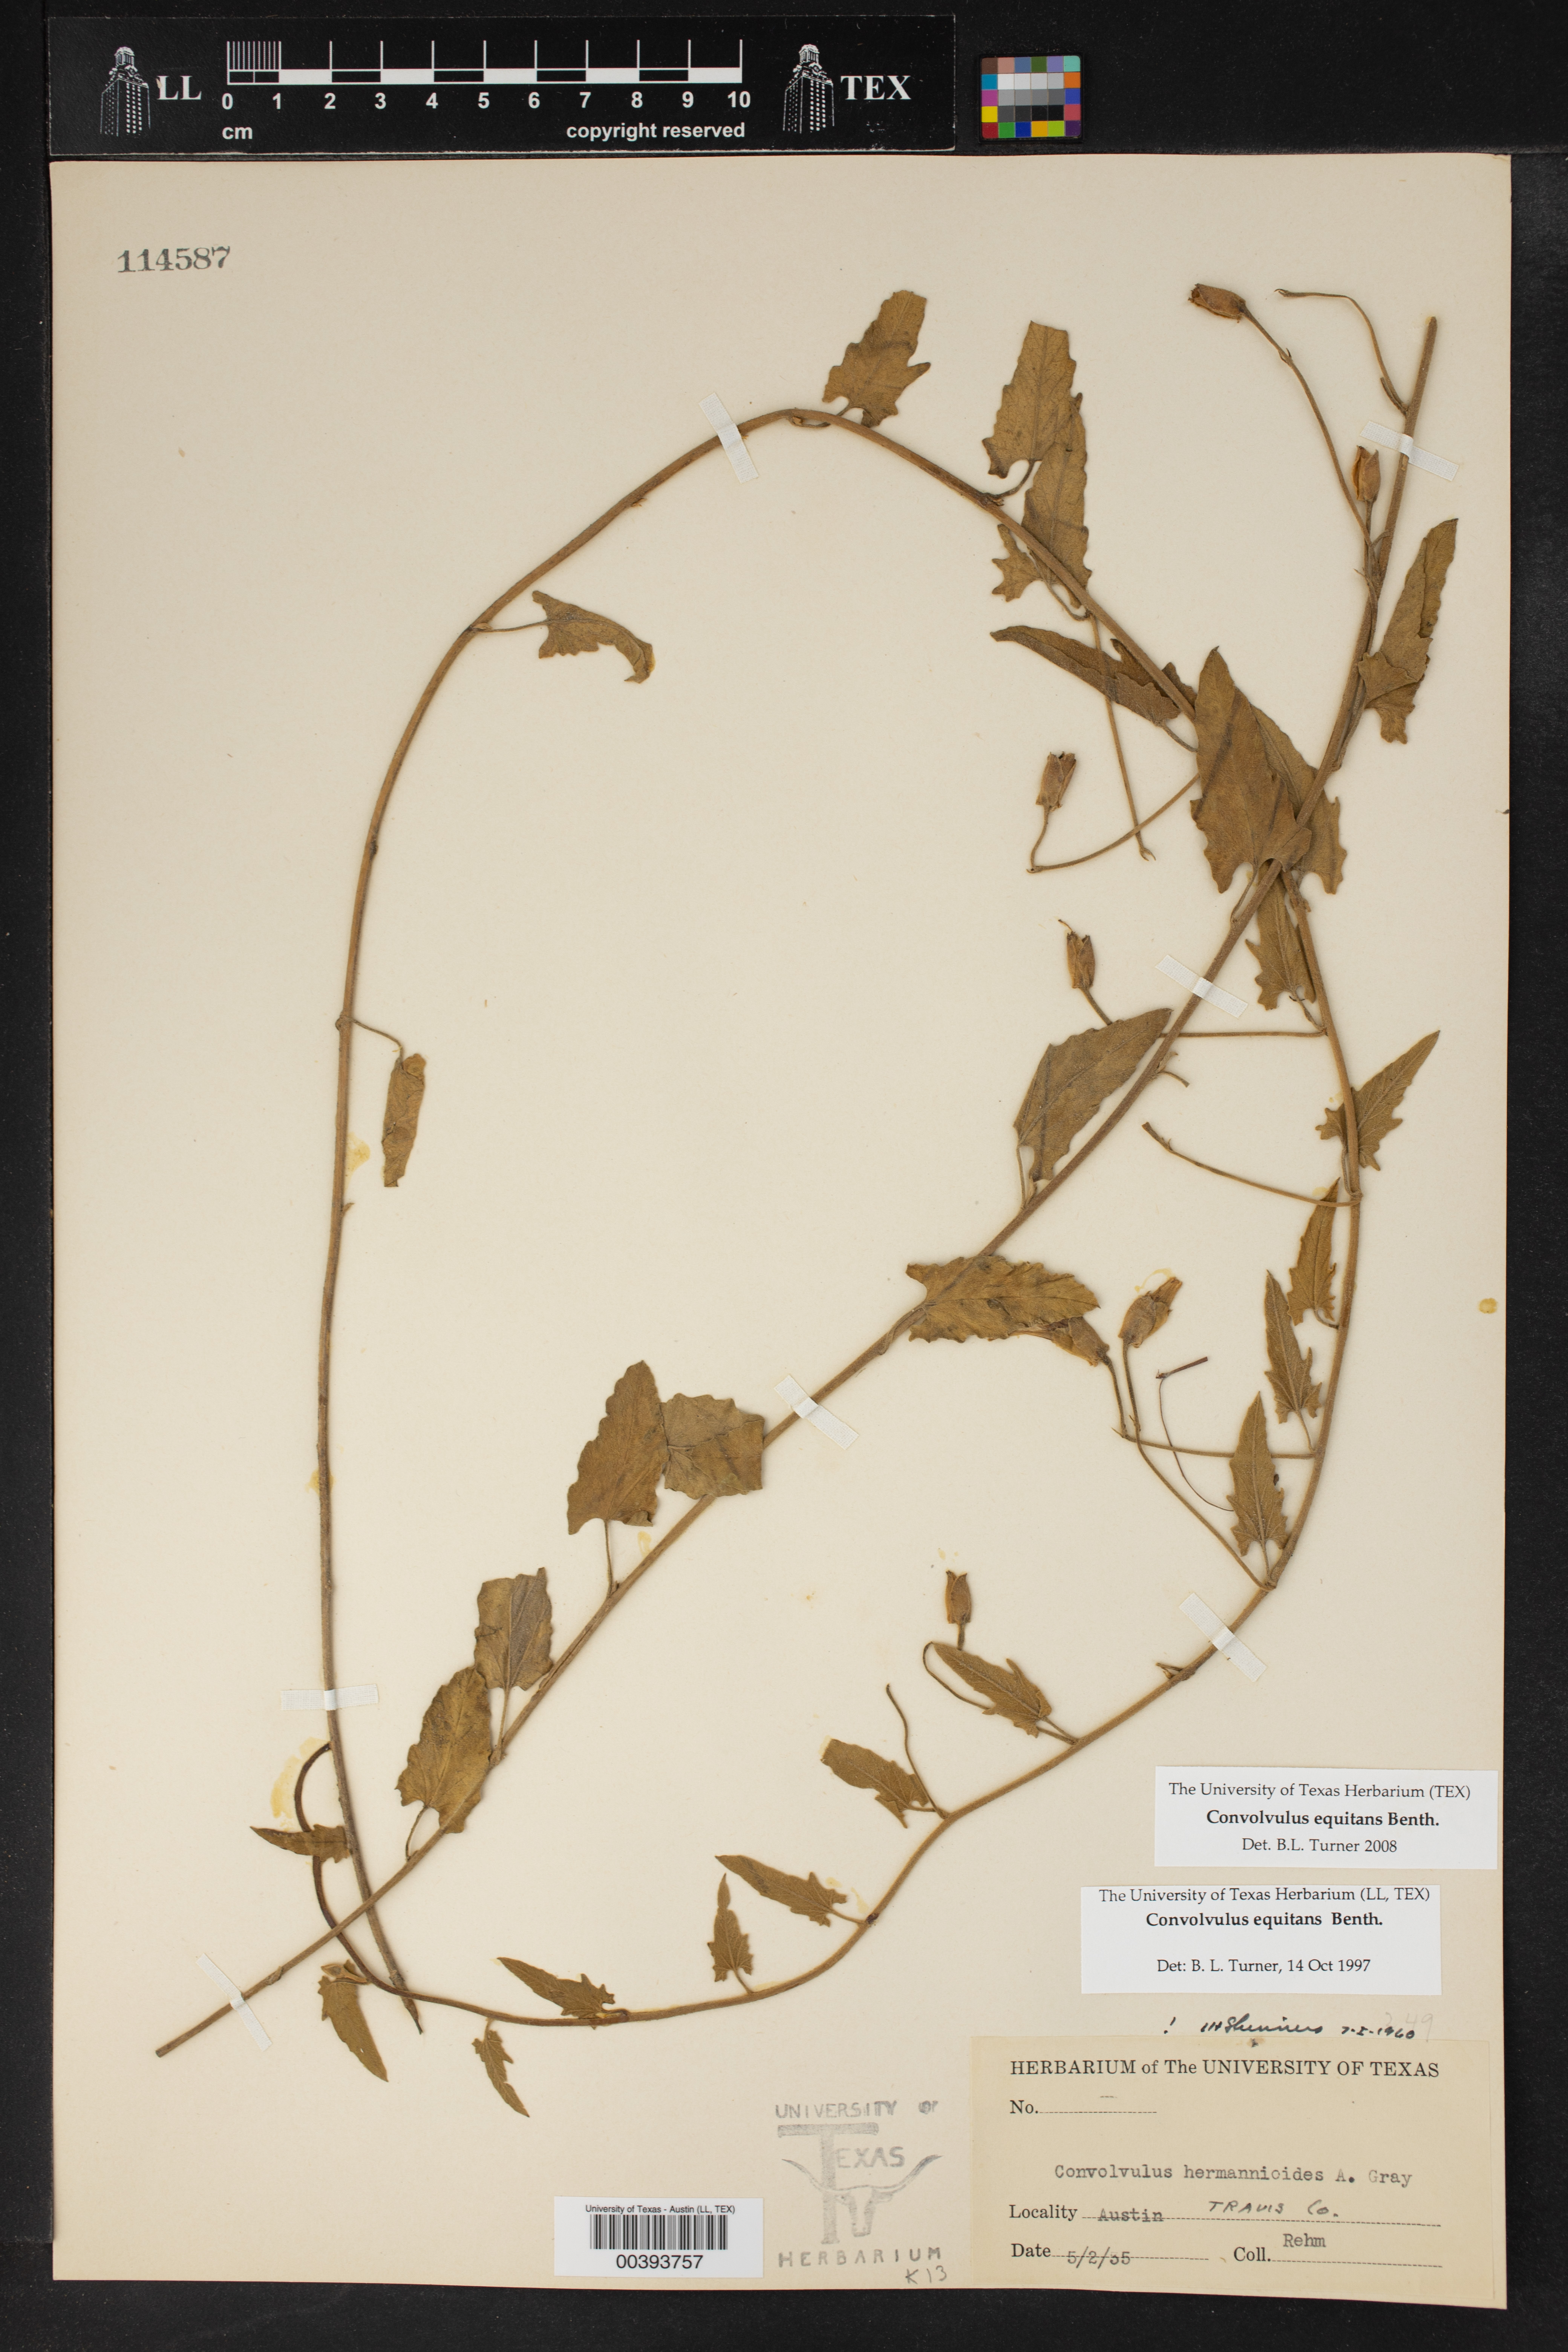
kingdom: Plantae
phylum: Tracheophyta
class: Magnoliopsida
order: Solanales
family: Convolvulaceae
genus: Convolvulus
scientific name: Convolvulus equitans
